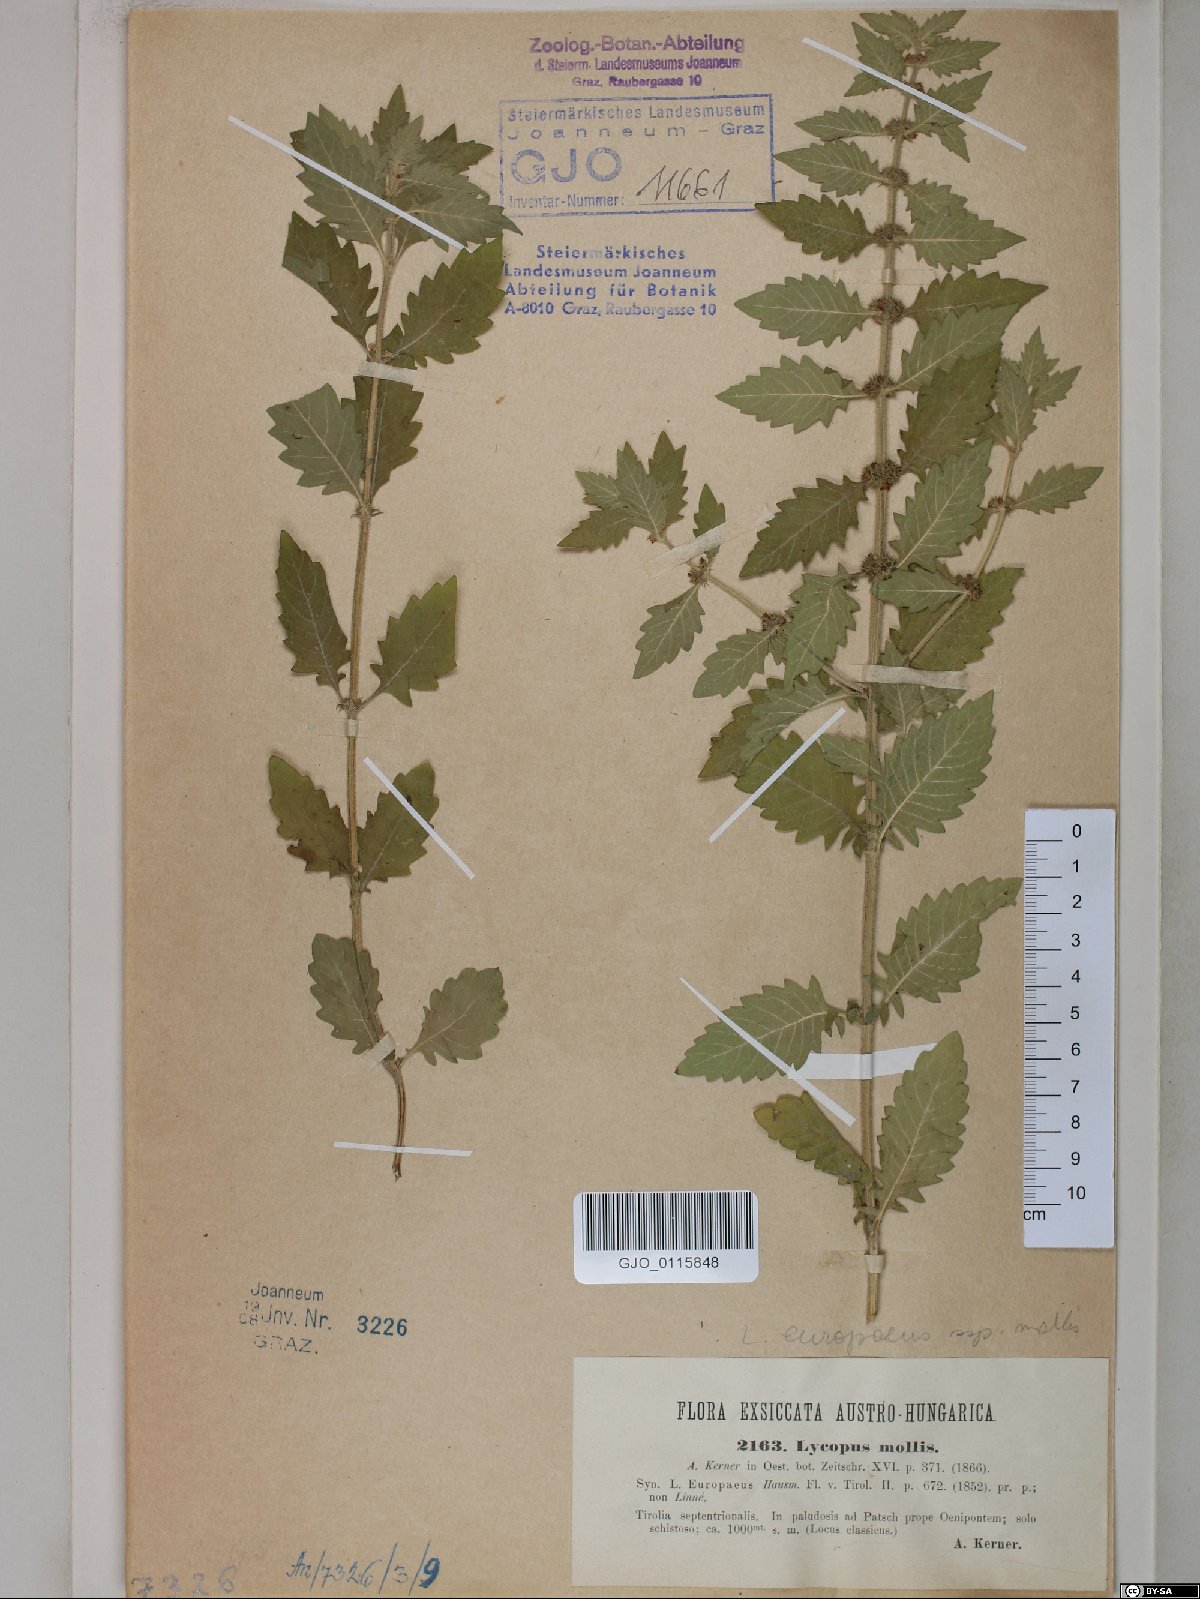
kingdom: Plantae
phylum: Tracheophyta
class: Magnoliopsida
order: Lamiales
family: Lamiaceae
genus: Lycopus
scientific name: Lycopus europaeus
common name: European bugleweed
